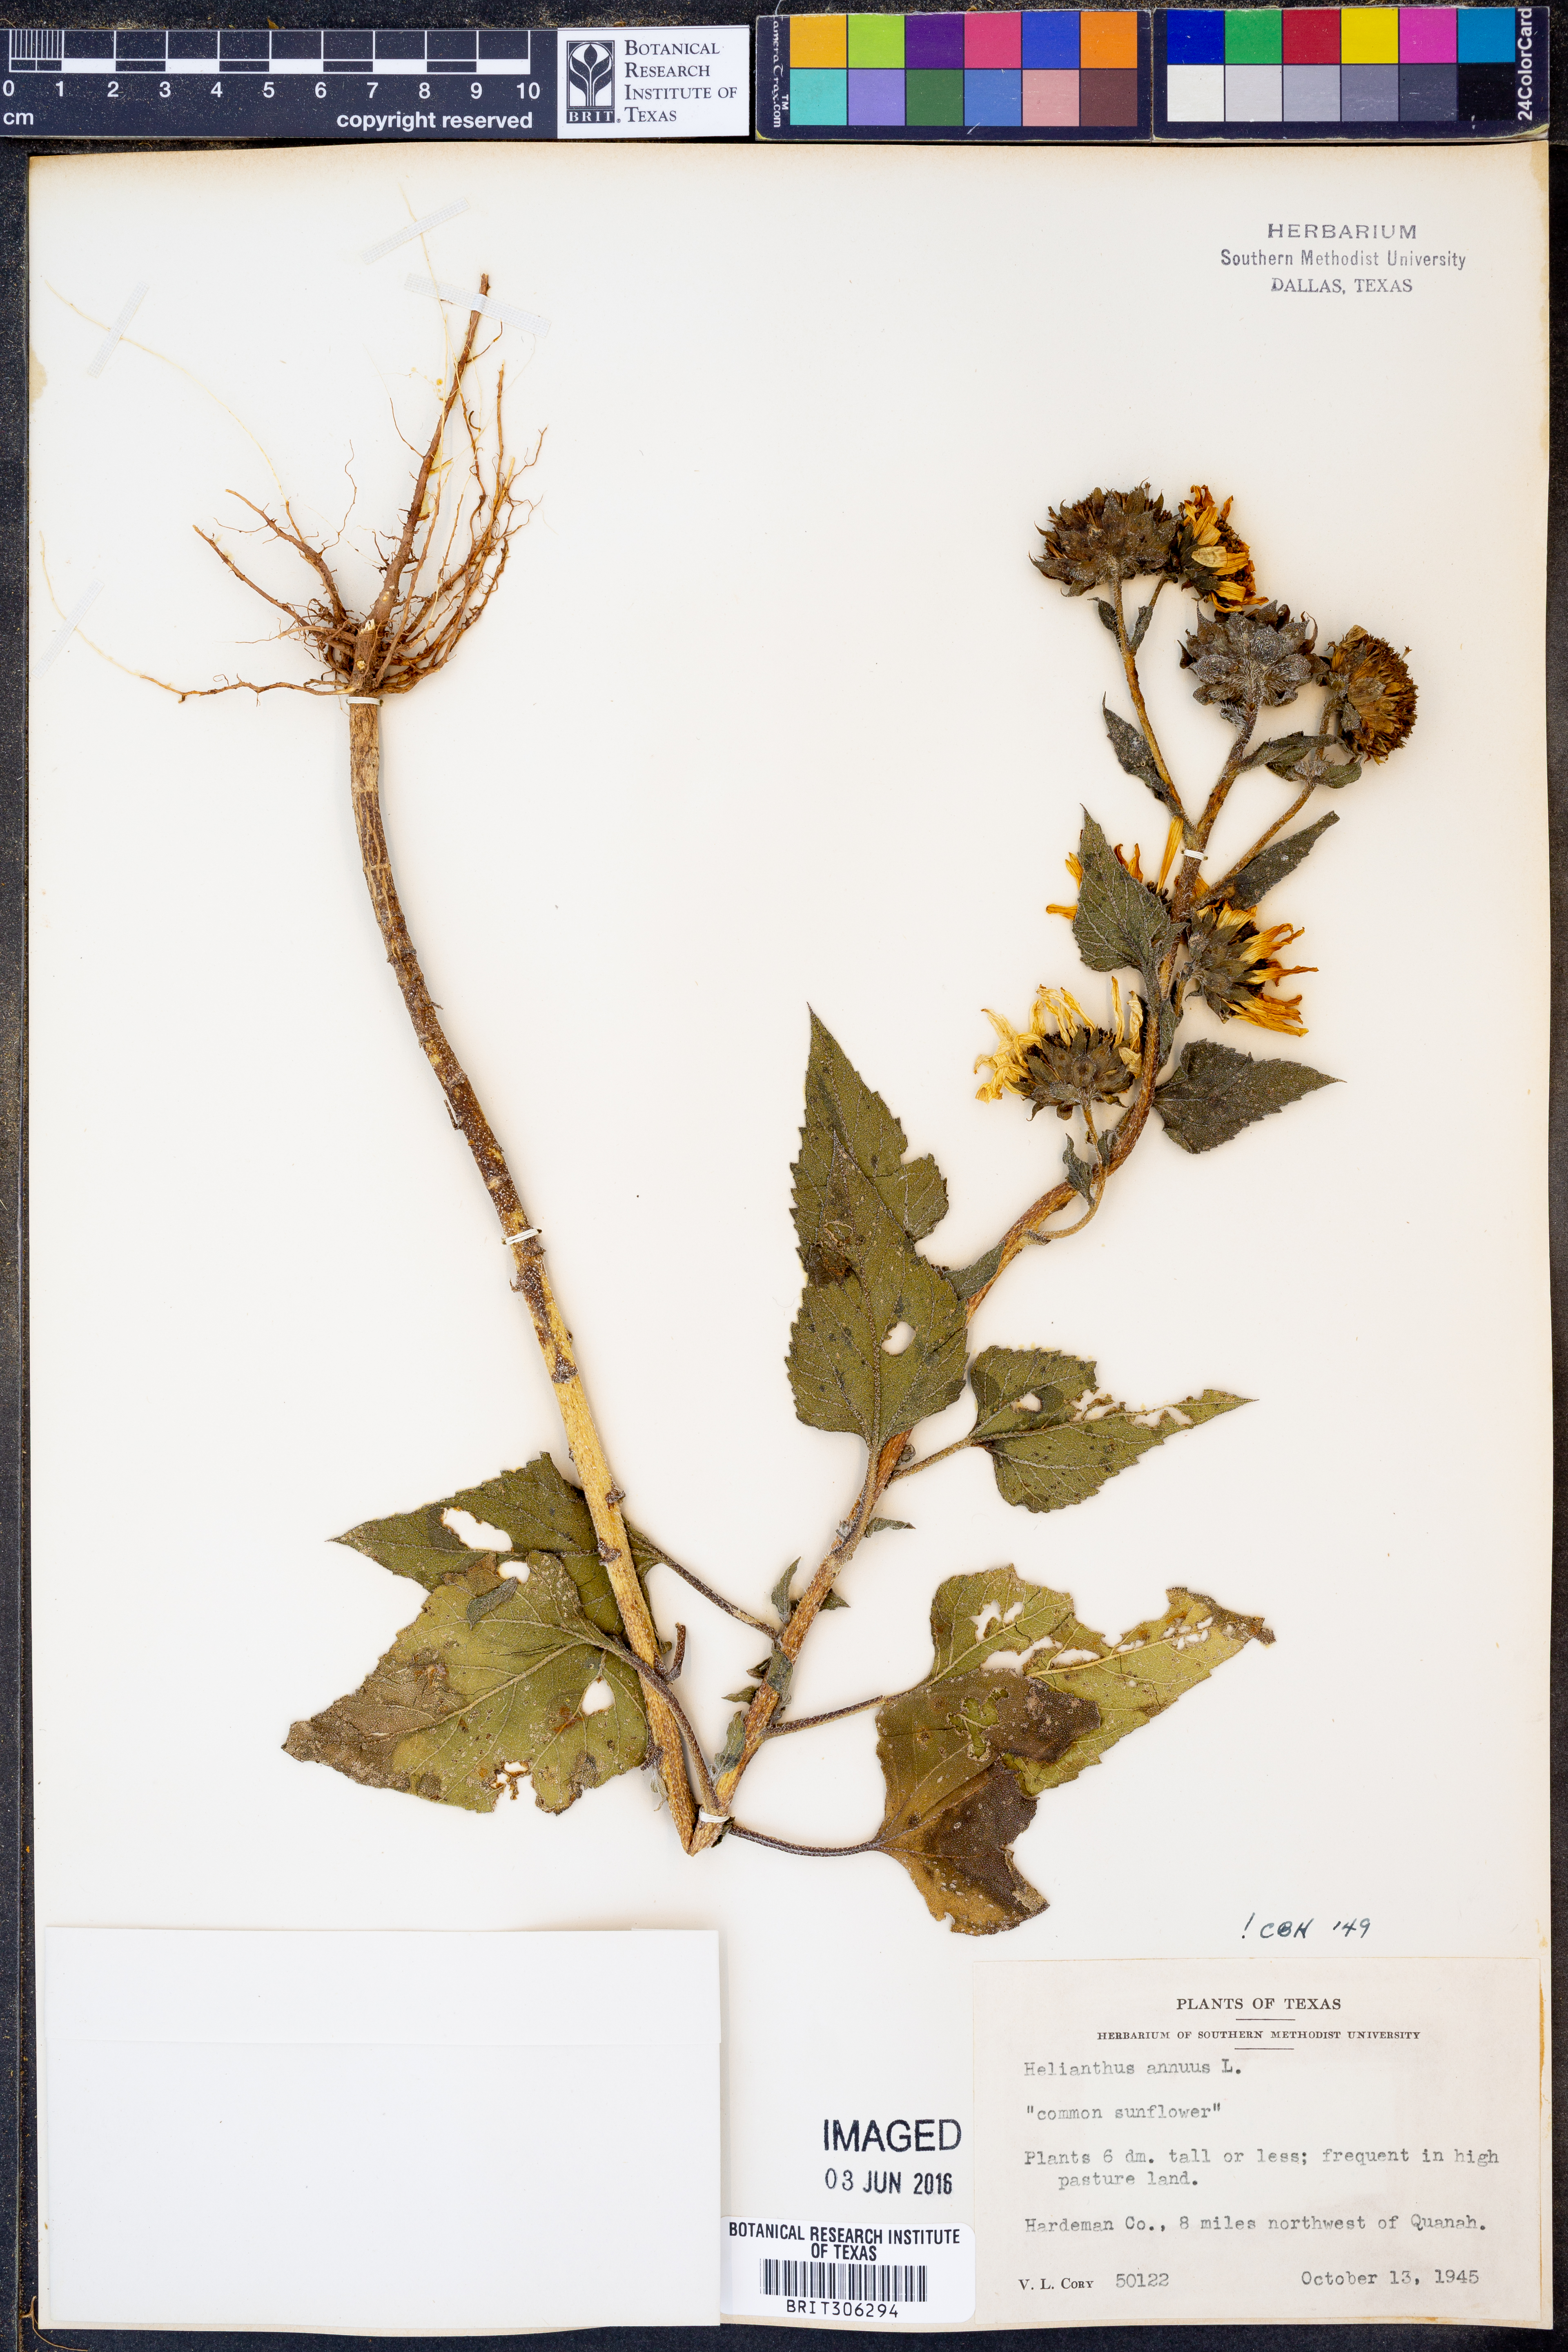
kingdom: Plantae
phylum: Tracheophyta
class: Magnoliopsida
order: Asterales
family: Asteraceae
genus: Helianthus
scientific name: Helianthus annuus
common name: Sunflower
